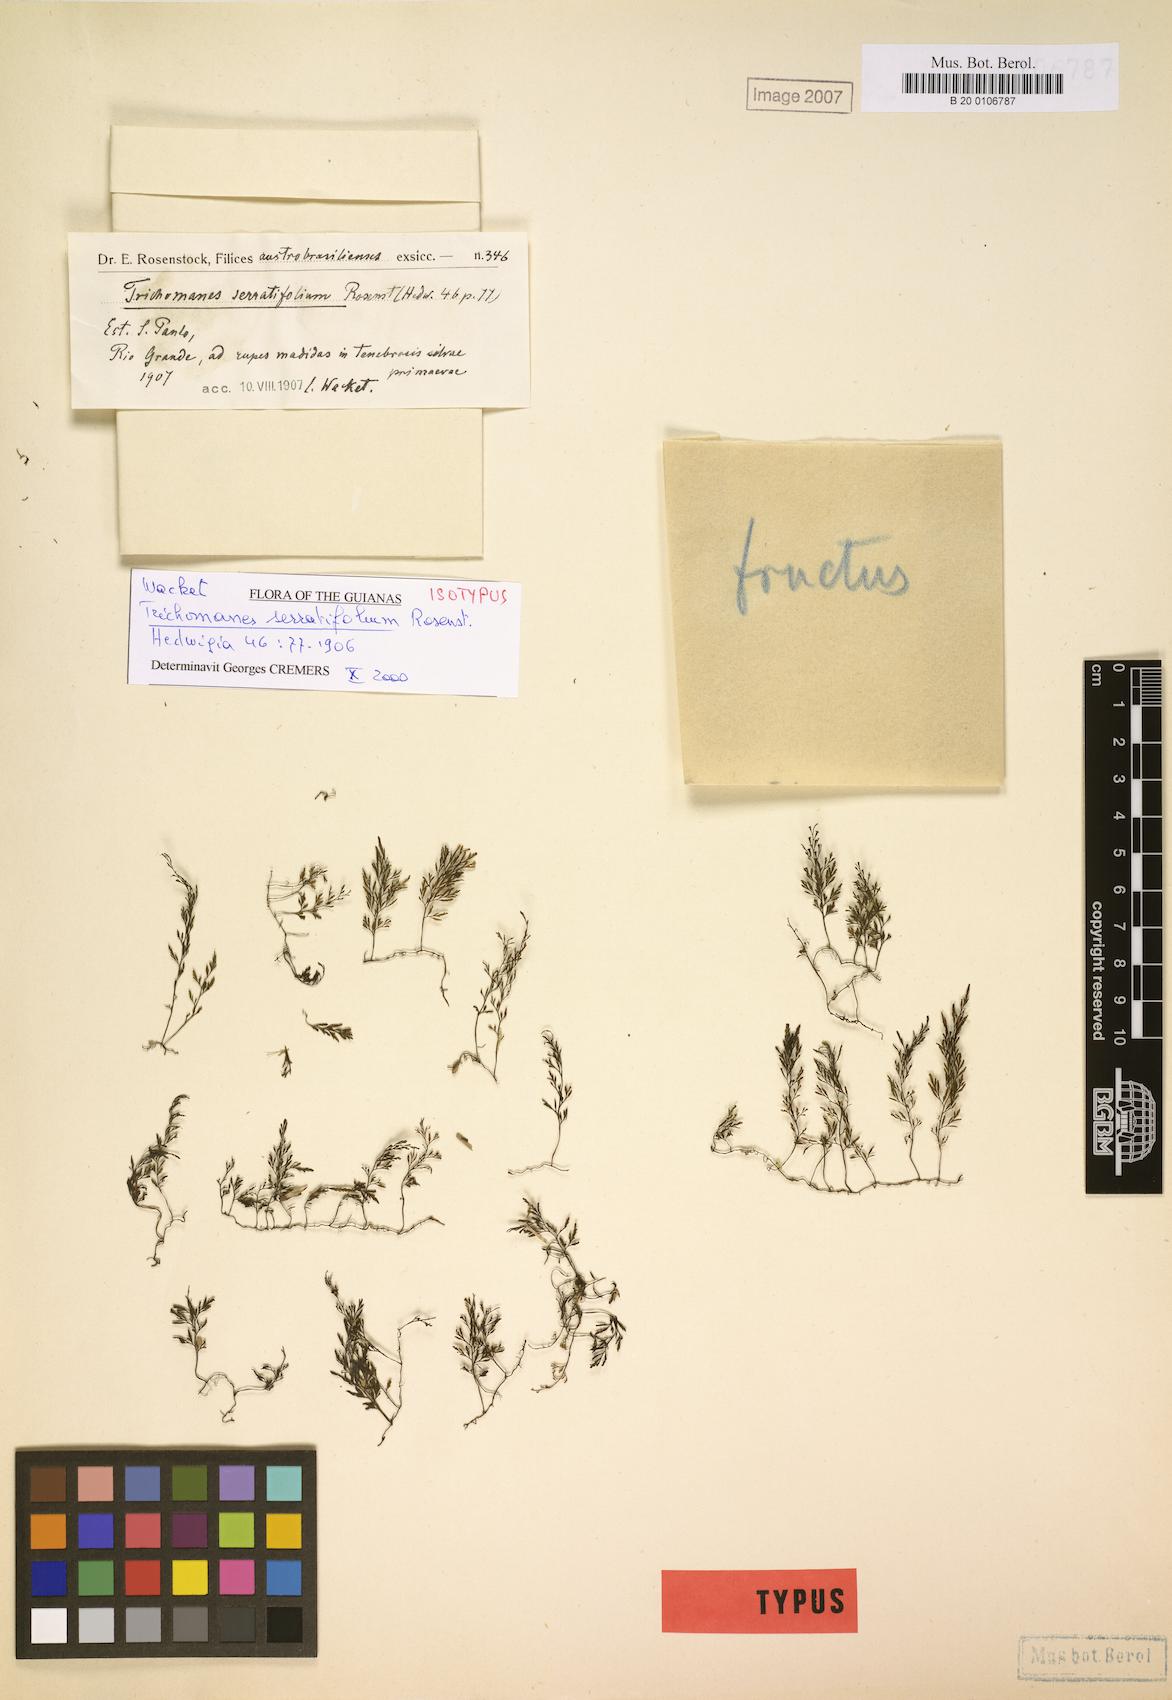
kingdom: Plantae
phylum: Tracheophyta
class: Polypodiopsida
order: Hymenophyllales
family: Hymenophyllaceae
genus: Vandenboschia
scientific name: Vandenboschia serratifolia
